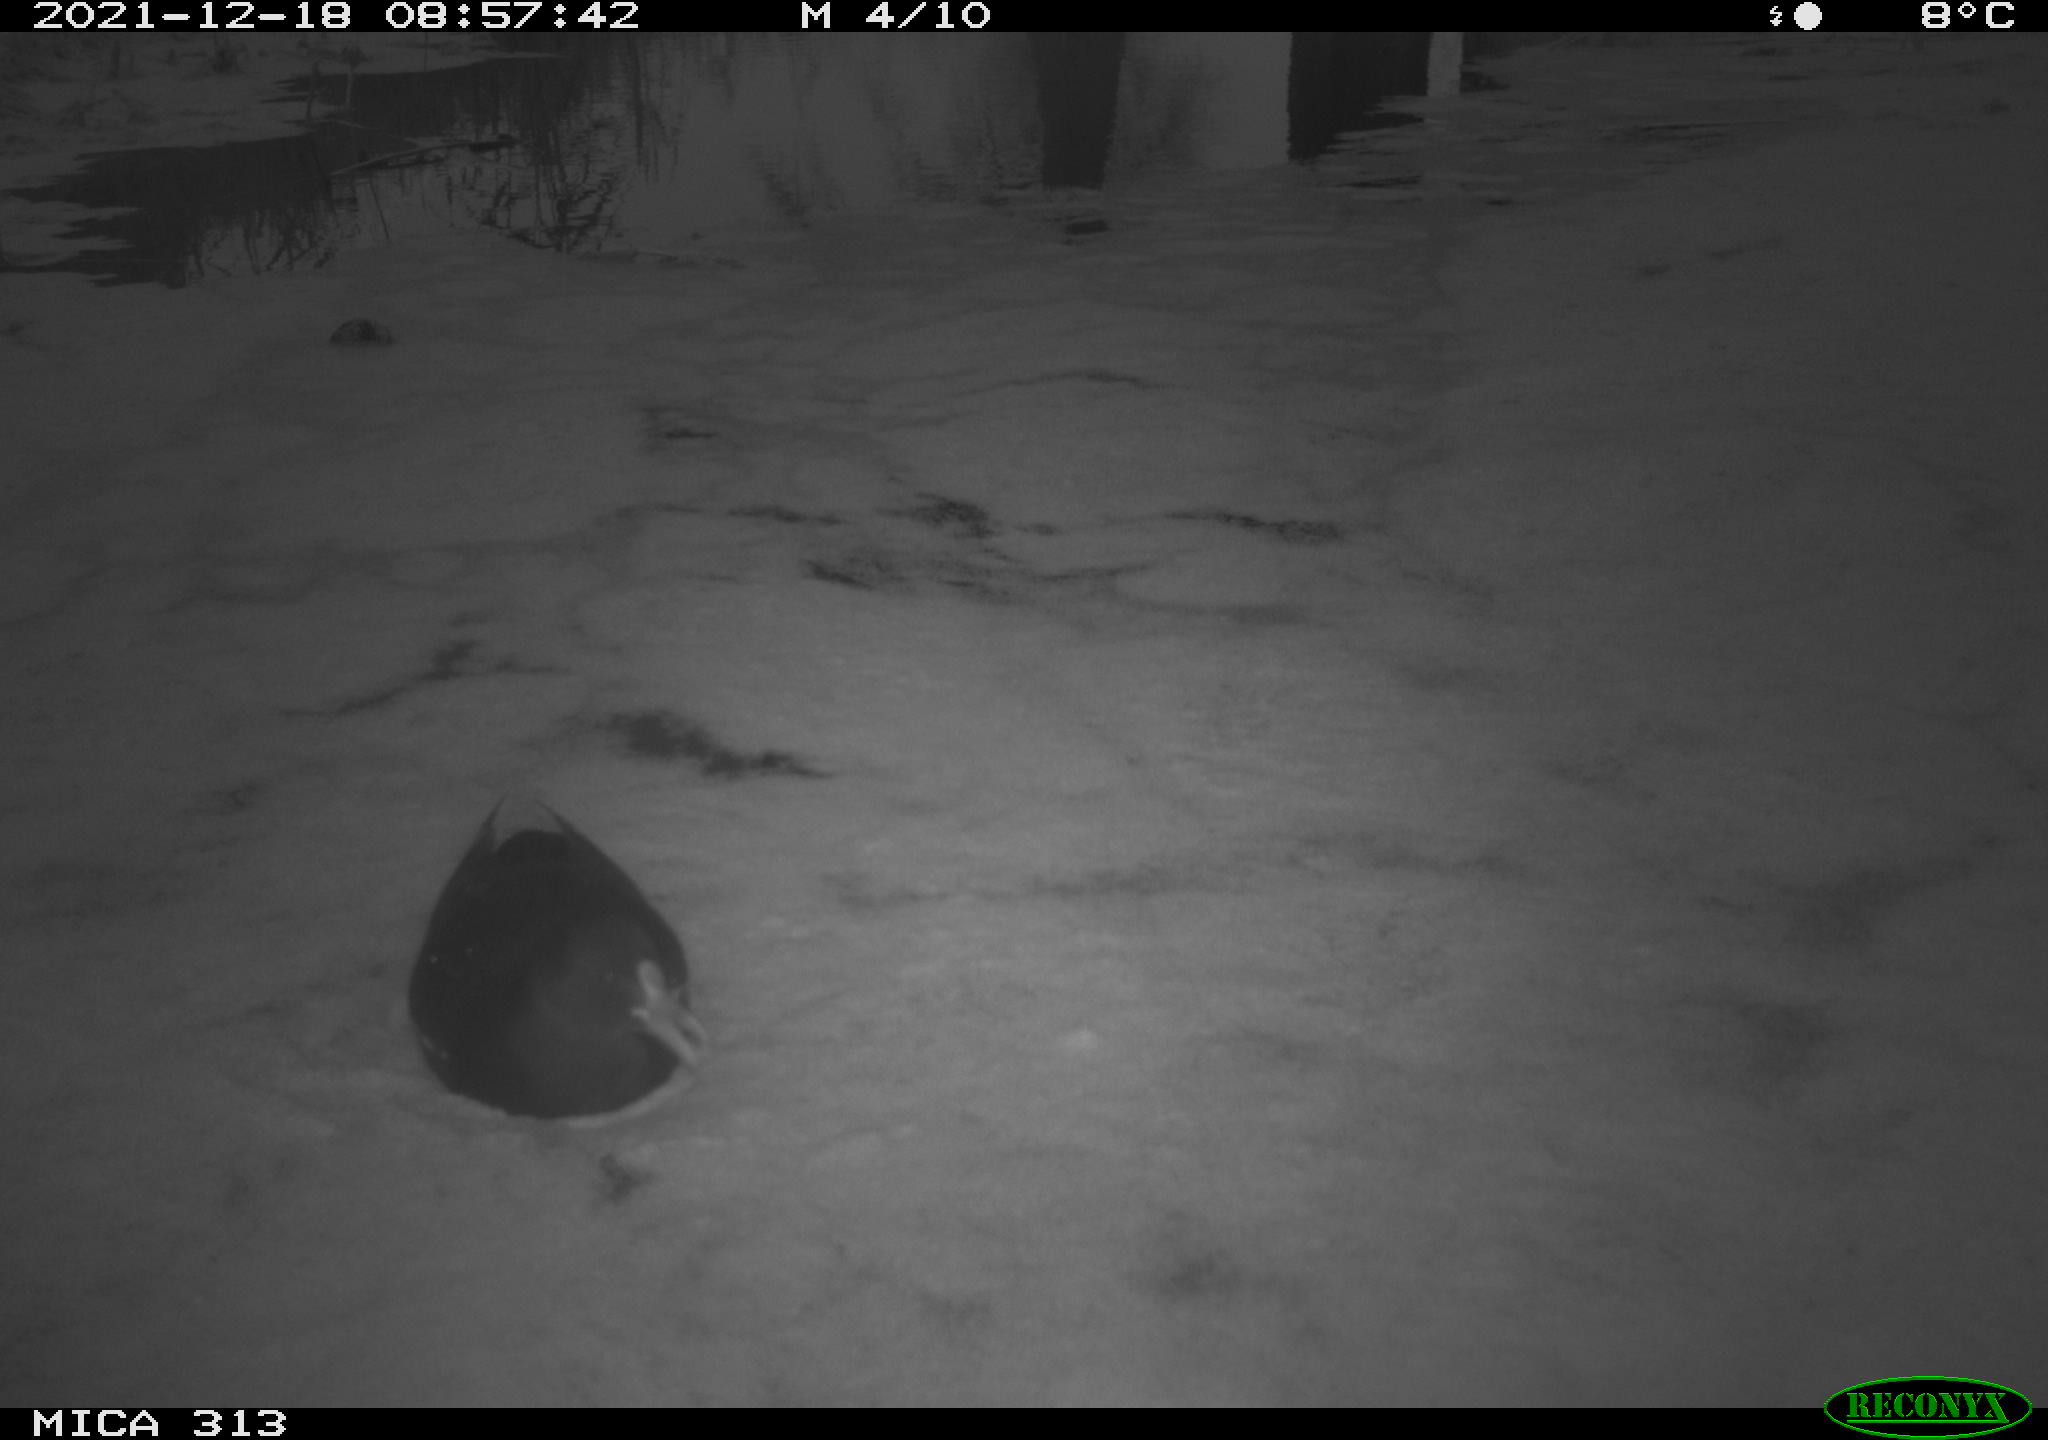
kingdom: Animalia
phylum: Chordata
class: Aves
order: Gruiformes
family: Rallidae
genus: Gallinula
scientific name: Gallinula chloropus
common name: Common moorhen
